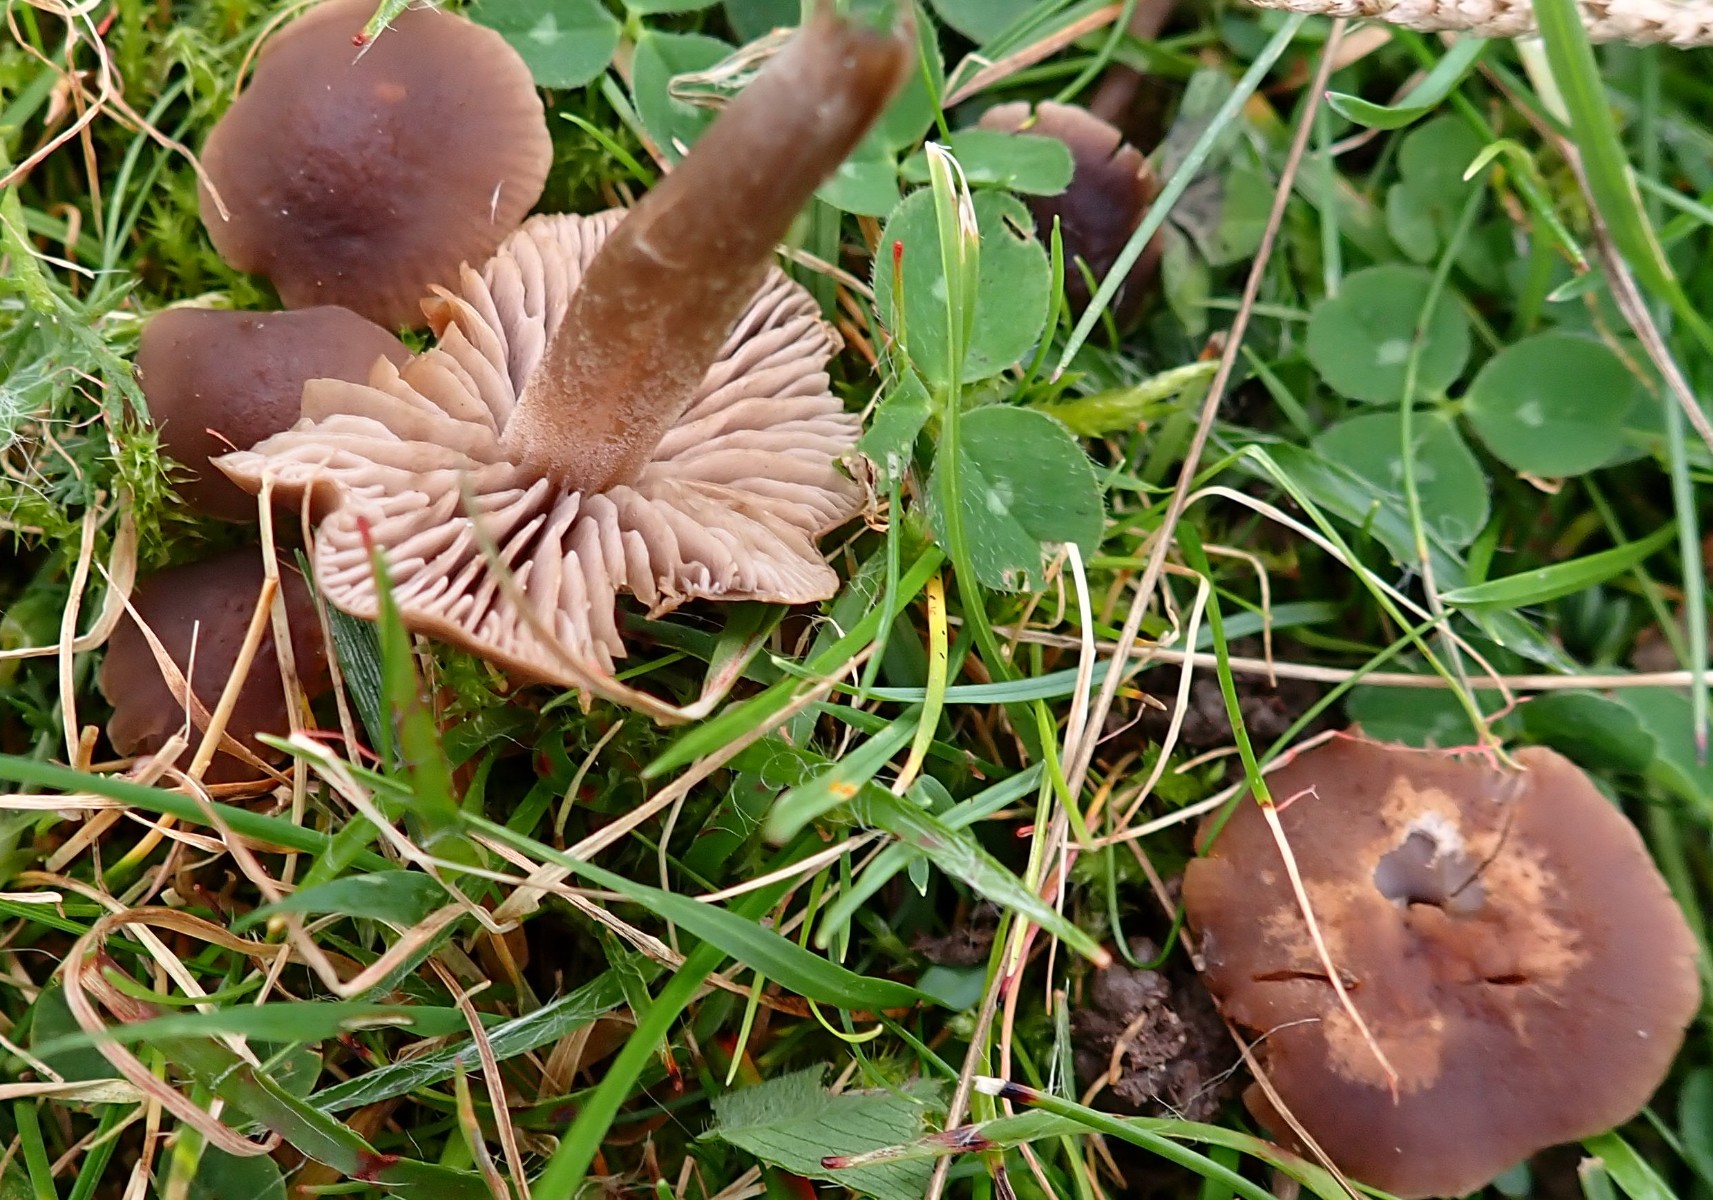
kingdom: Fungi
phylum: Basidiomycota
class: Agaricomycetes
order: Agaricales
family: Tricholomataceae
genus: Dermoloma
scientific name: Dermoloma pseudocuneifolium
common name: mark-nonnehat
